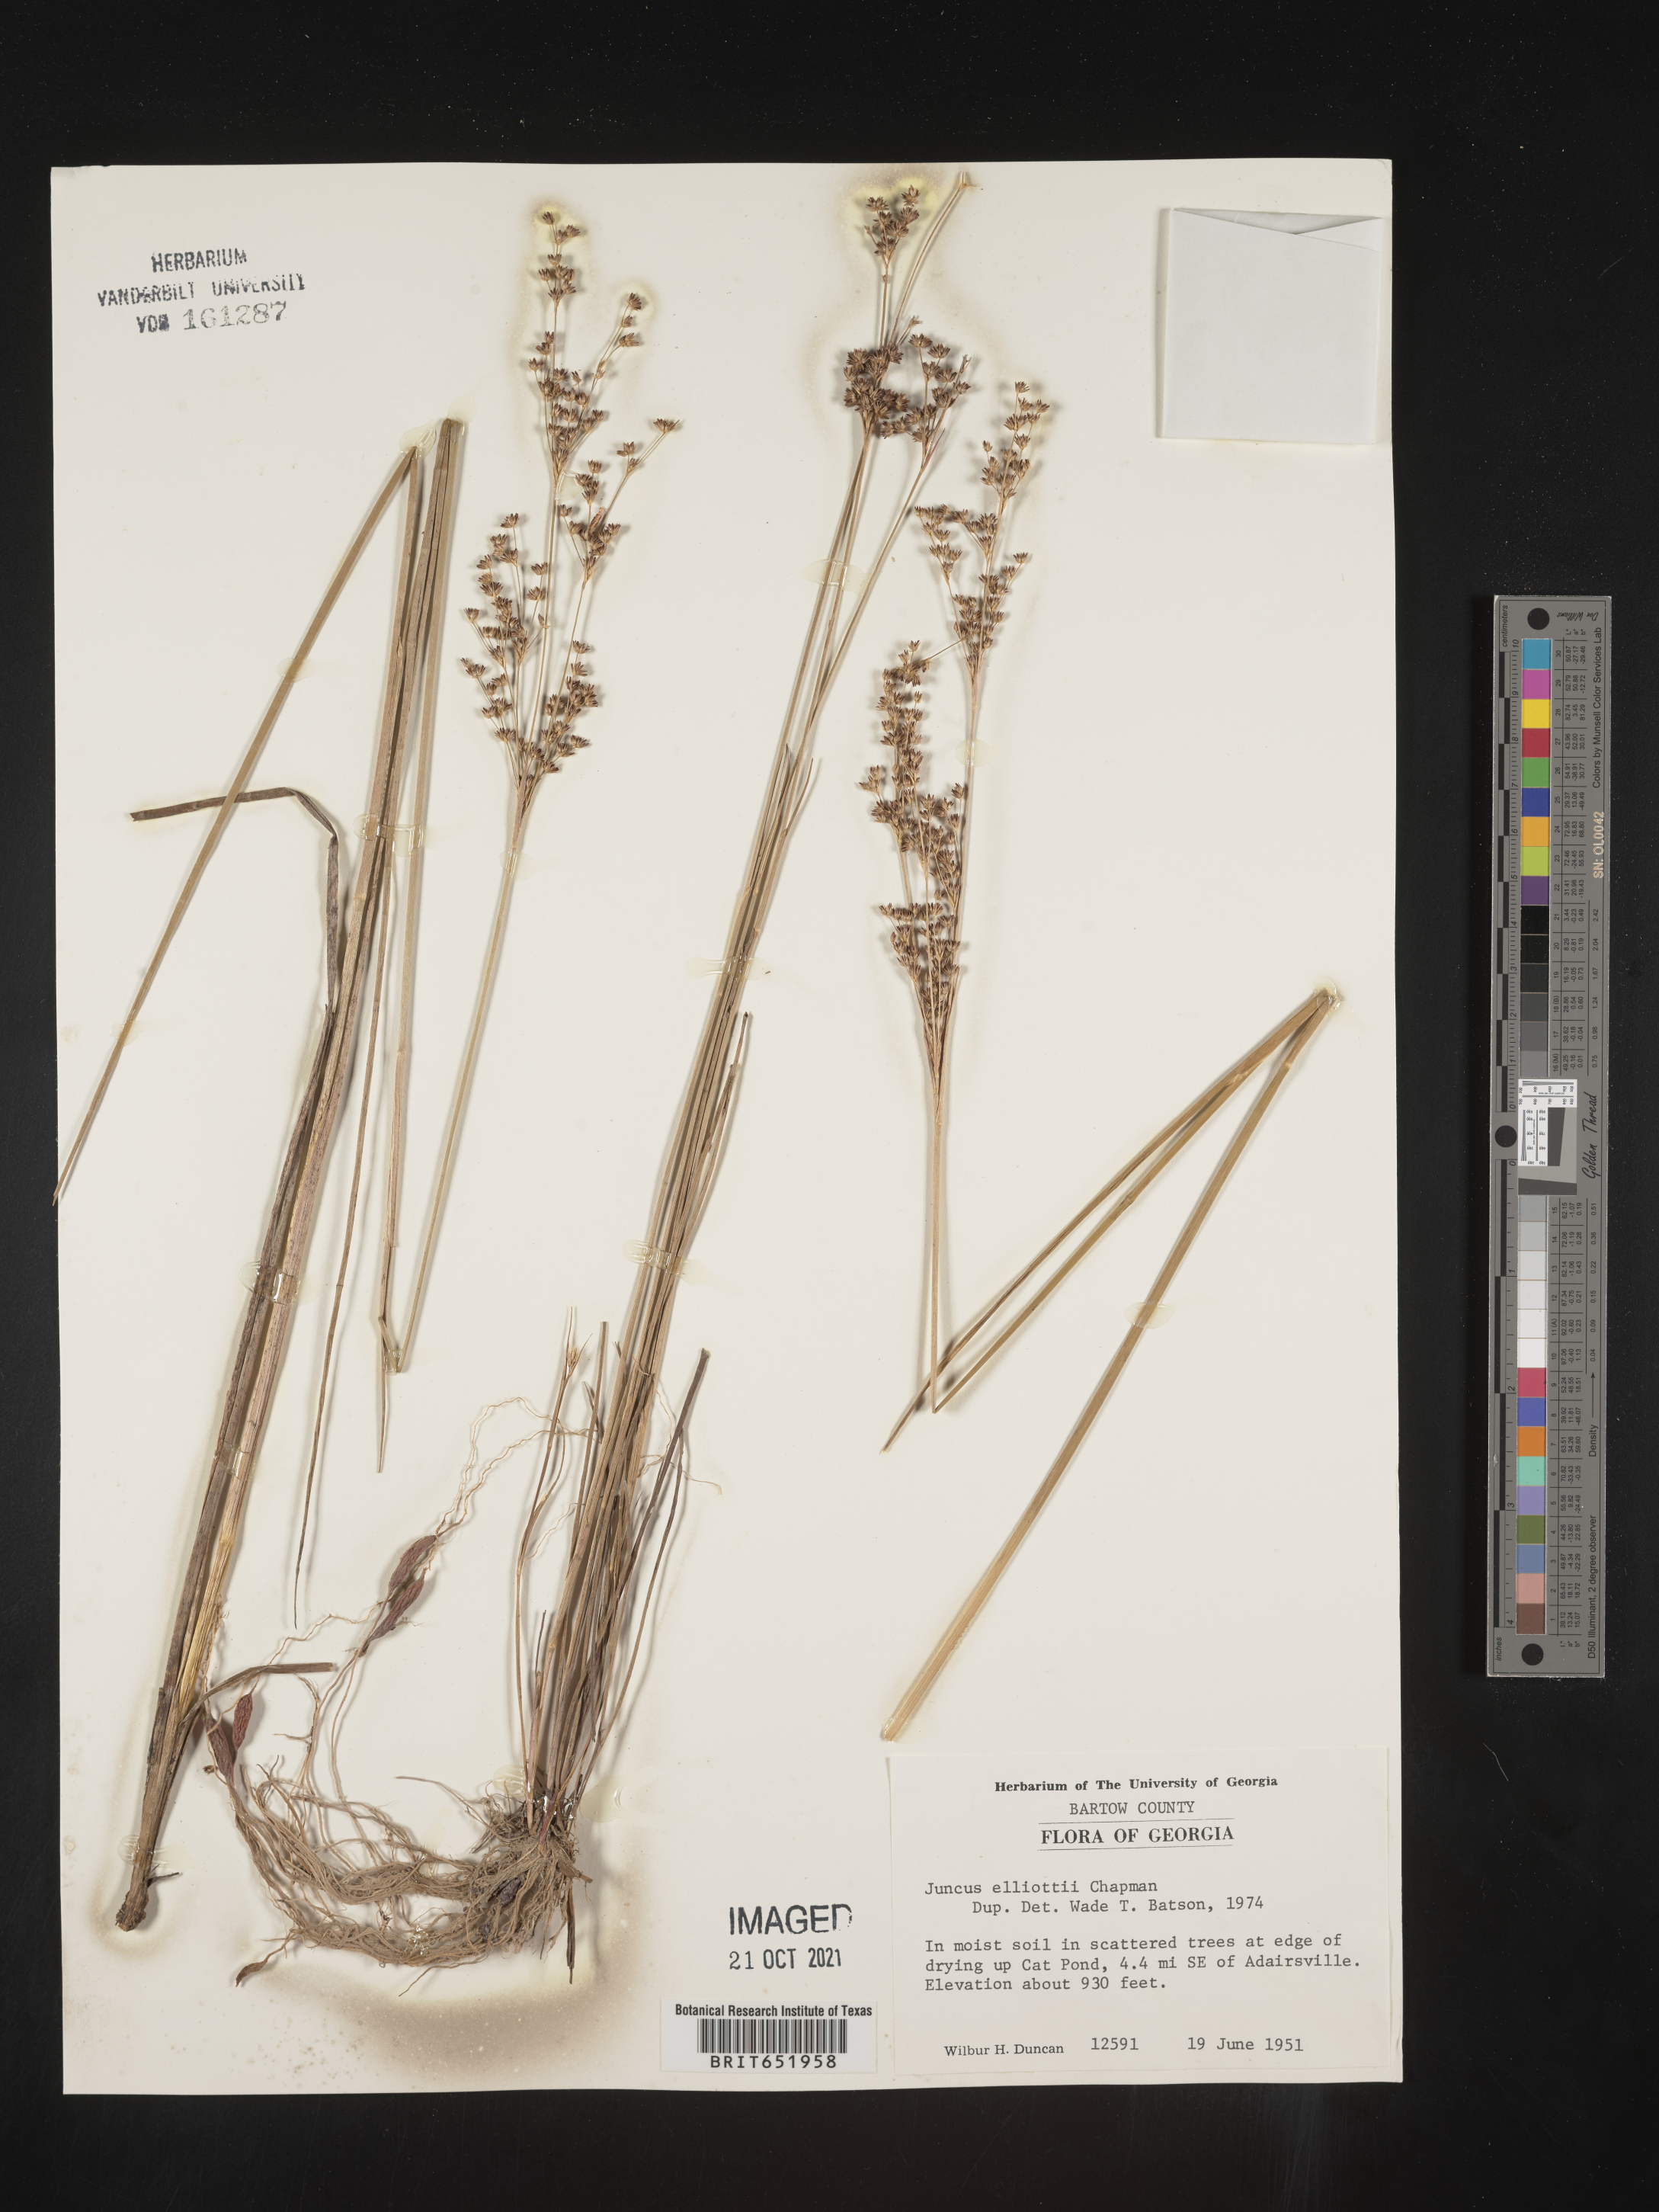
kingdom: Plantae
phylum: Tracheophyta
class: Liliopsida
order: Poales
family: Juncaceae
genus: Juncus
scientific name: Juncus elliottii
